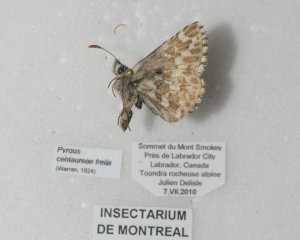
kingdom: Animalia
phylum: Arthropoda
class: Insecta
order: Lepidoptera
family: Hesperiidae
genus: Pyrgus
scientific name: Pyrgus centaureae
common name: Grizzled Skipper
